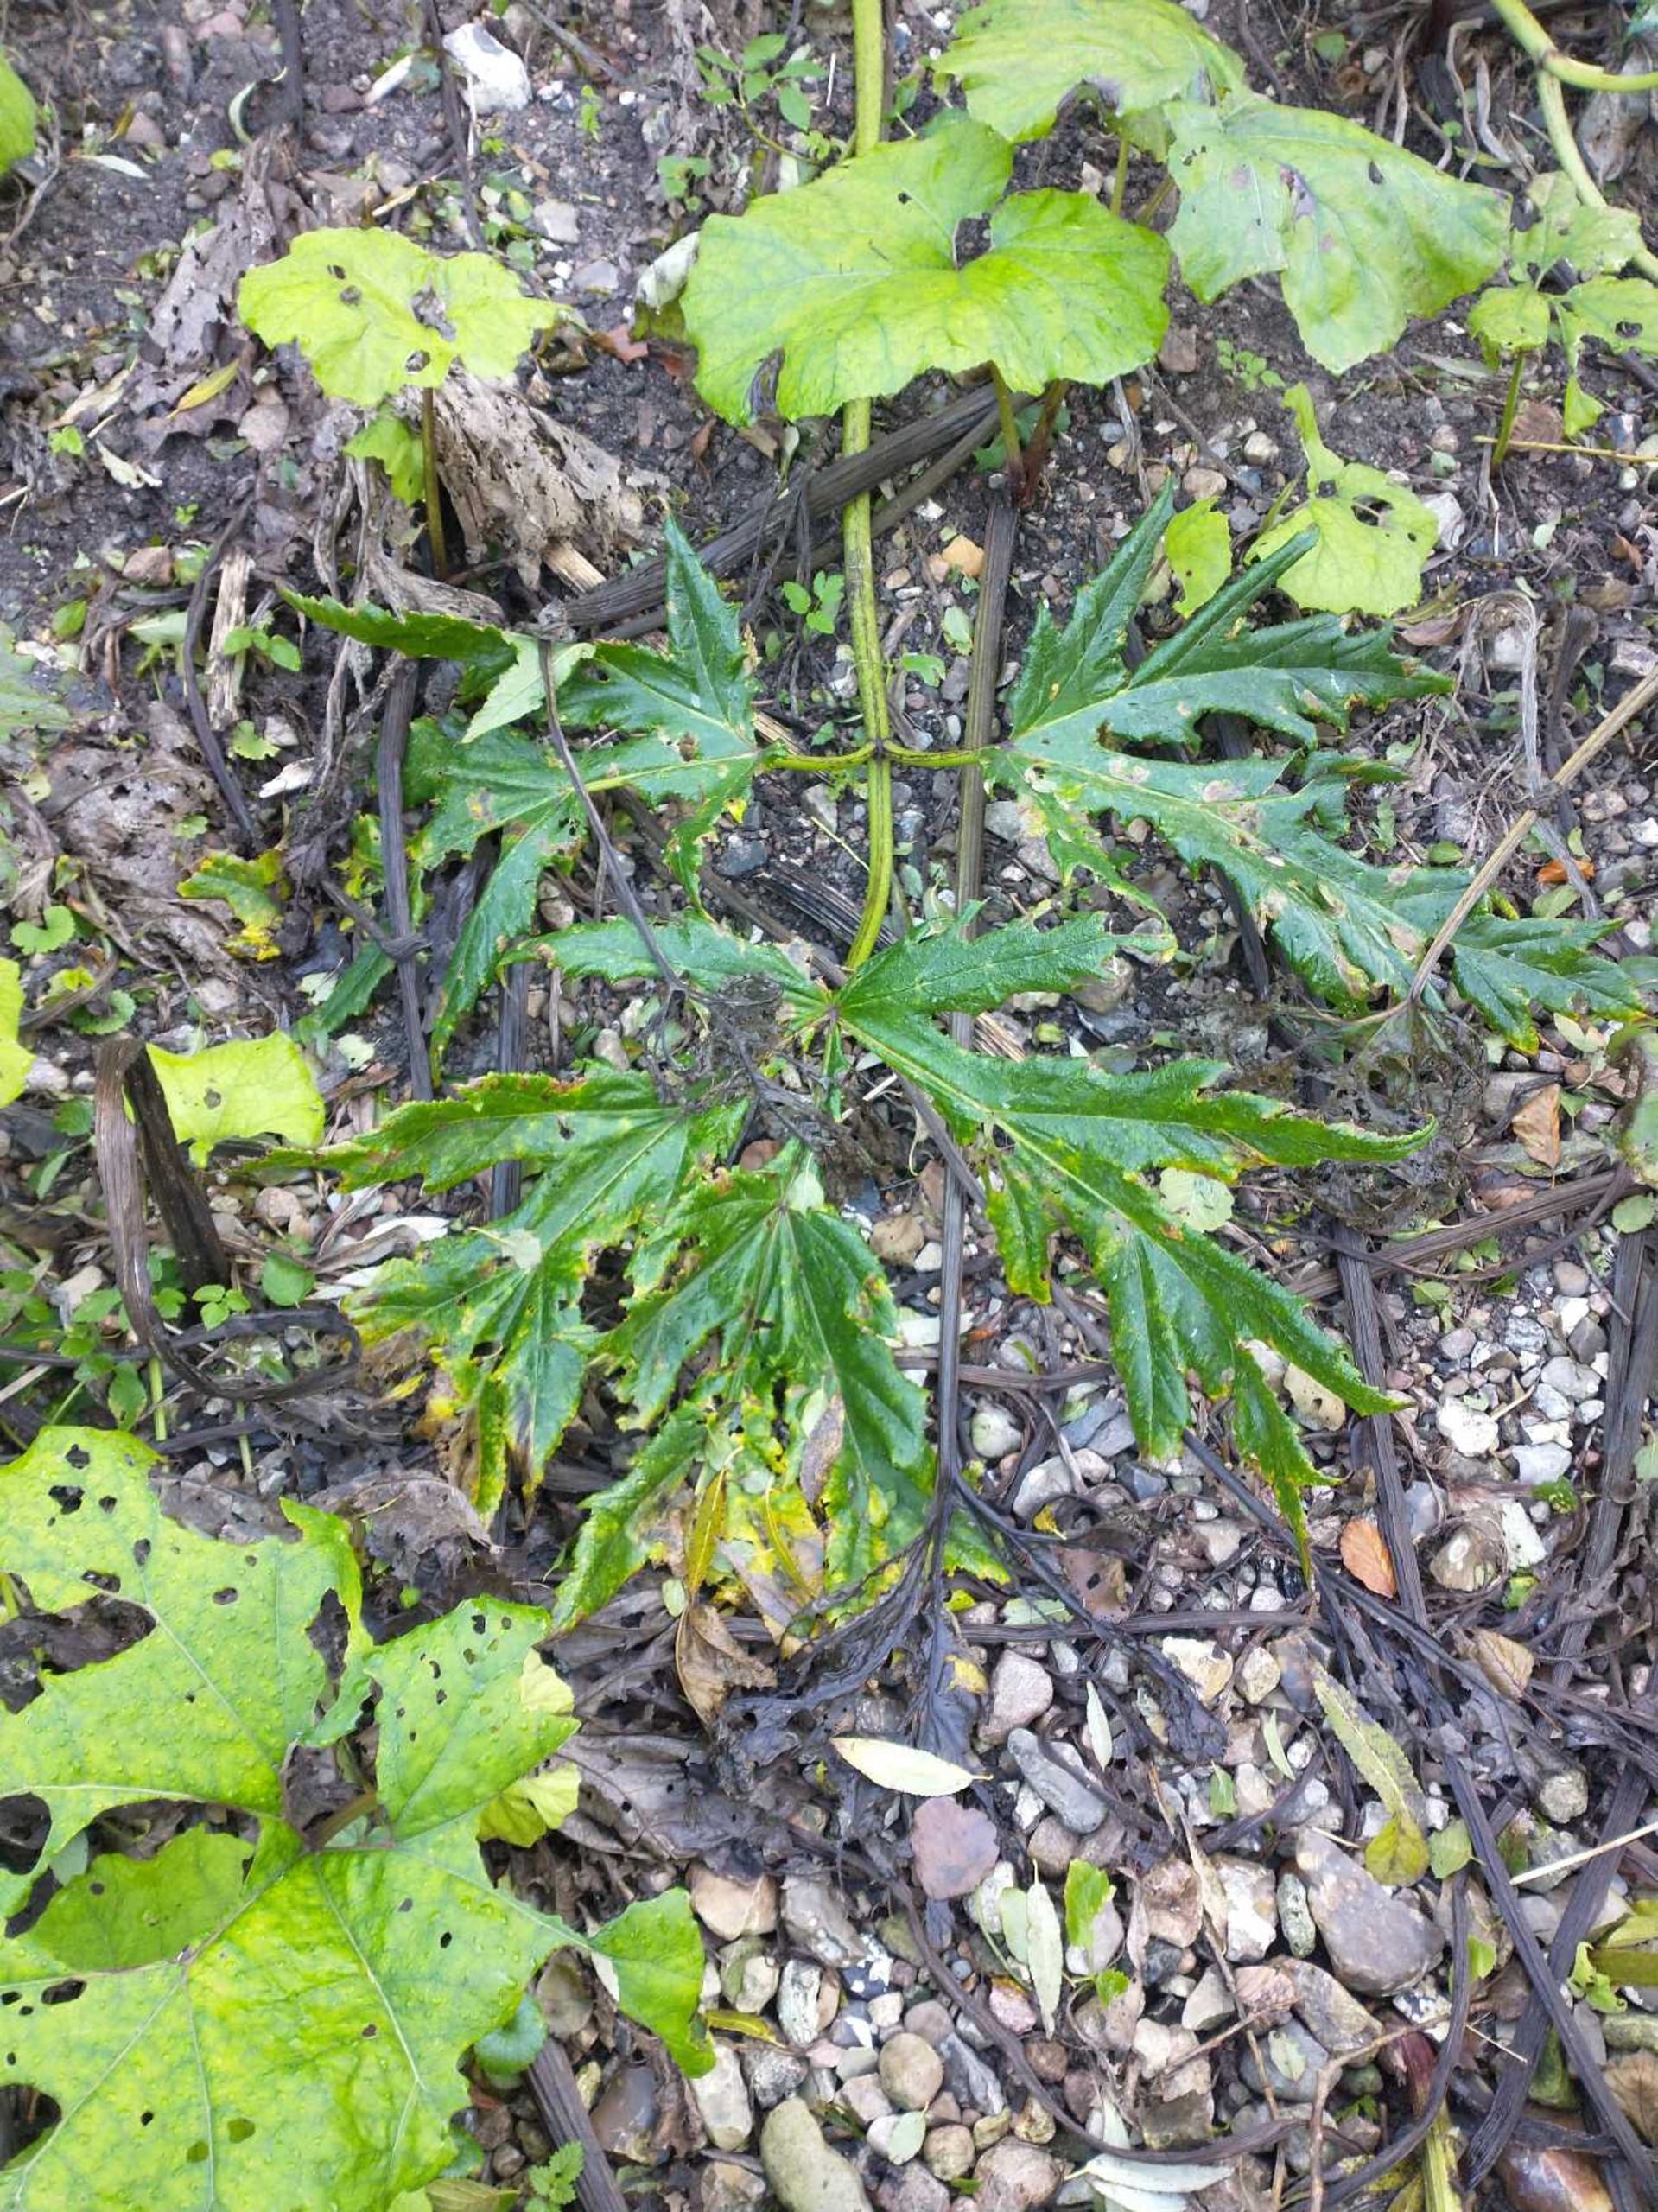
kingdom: Plantae
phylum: Tracheophyta
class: Magnoliopsida
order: Apiales
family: Apiaceae
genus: Heracleum
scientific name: Heracleum mantegazzianum
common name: Kæmpe-bjørneklo
